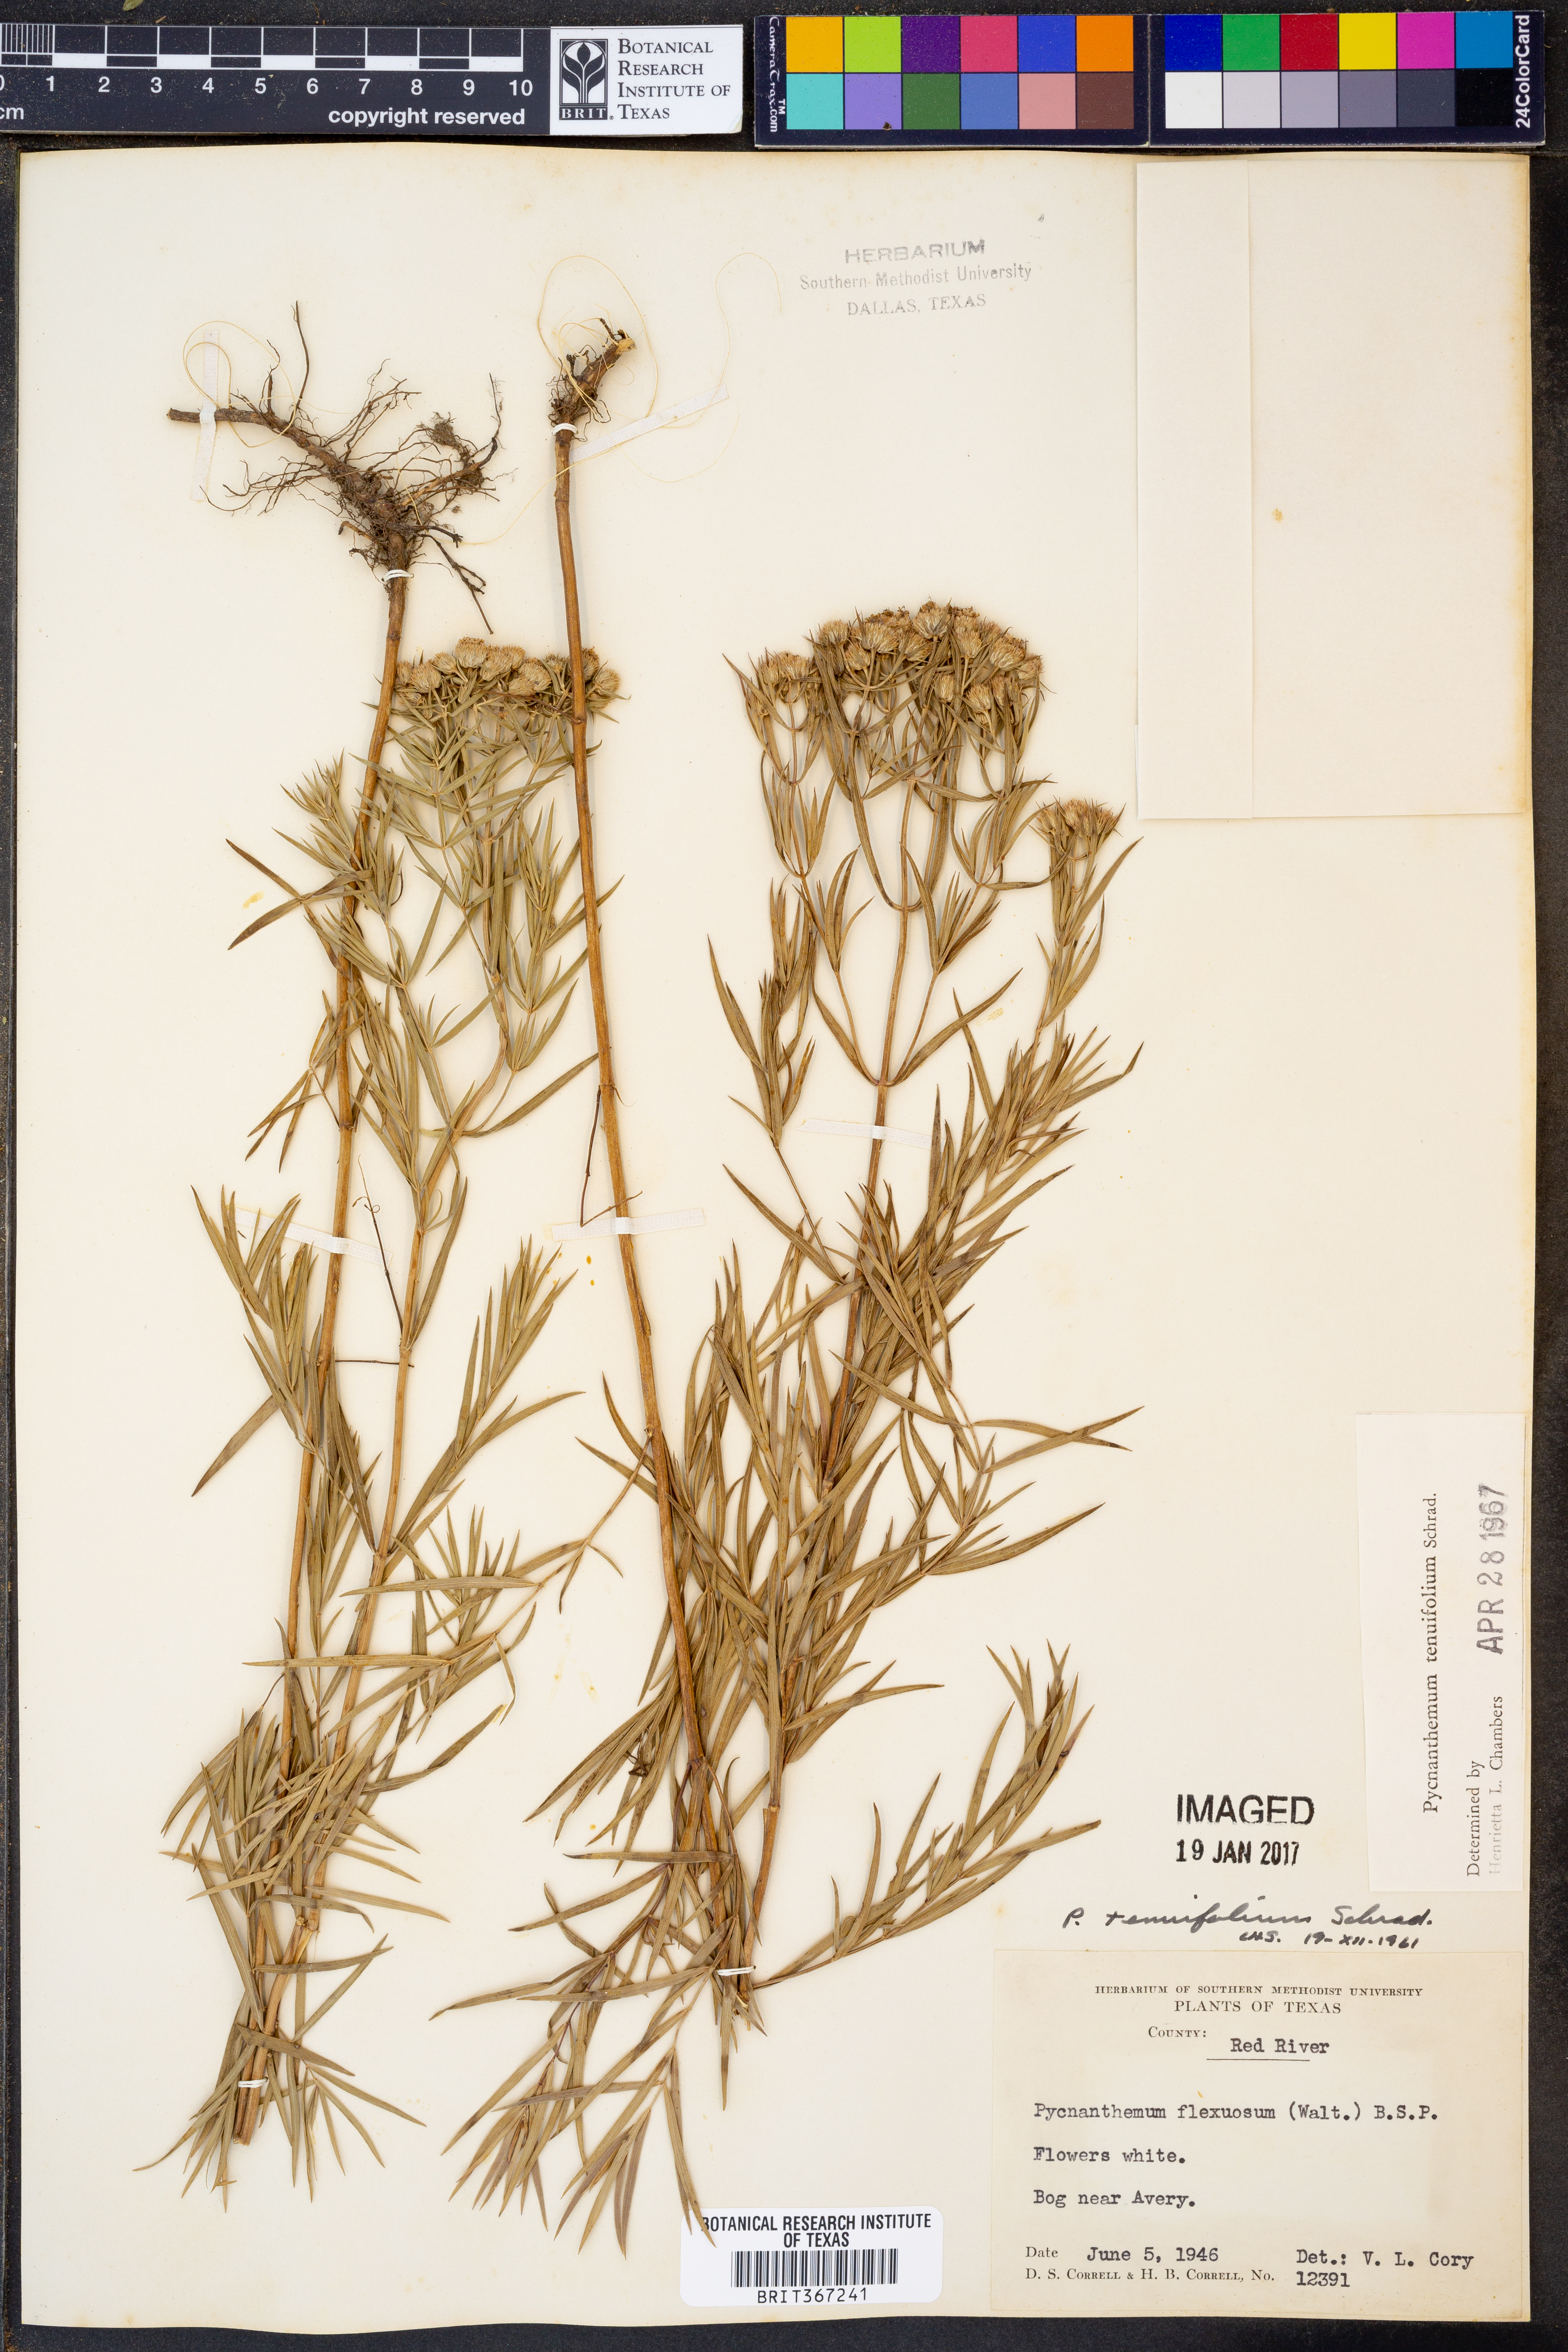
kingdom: Plantae
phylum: Tracheophyta
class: Magnoliopsida
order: Lamiales
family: Lamiaceae
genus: Pycnanthemum
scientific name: Pycnanthemum tenuifolium
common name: Narrow-leaf mountain-mint
